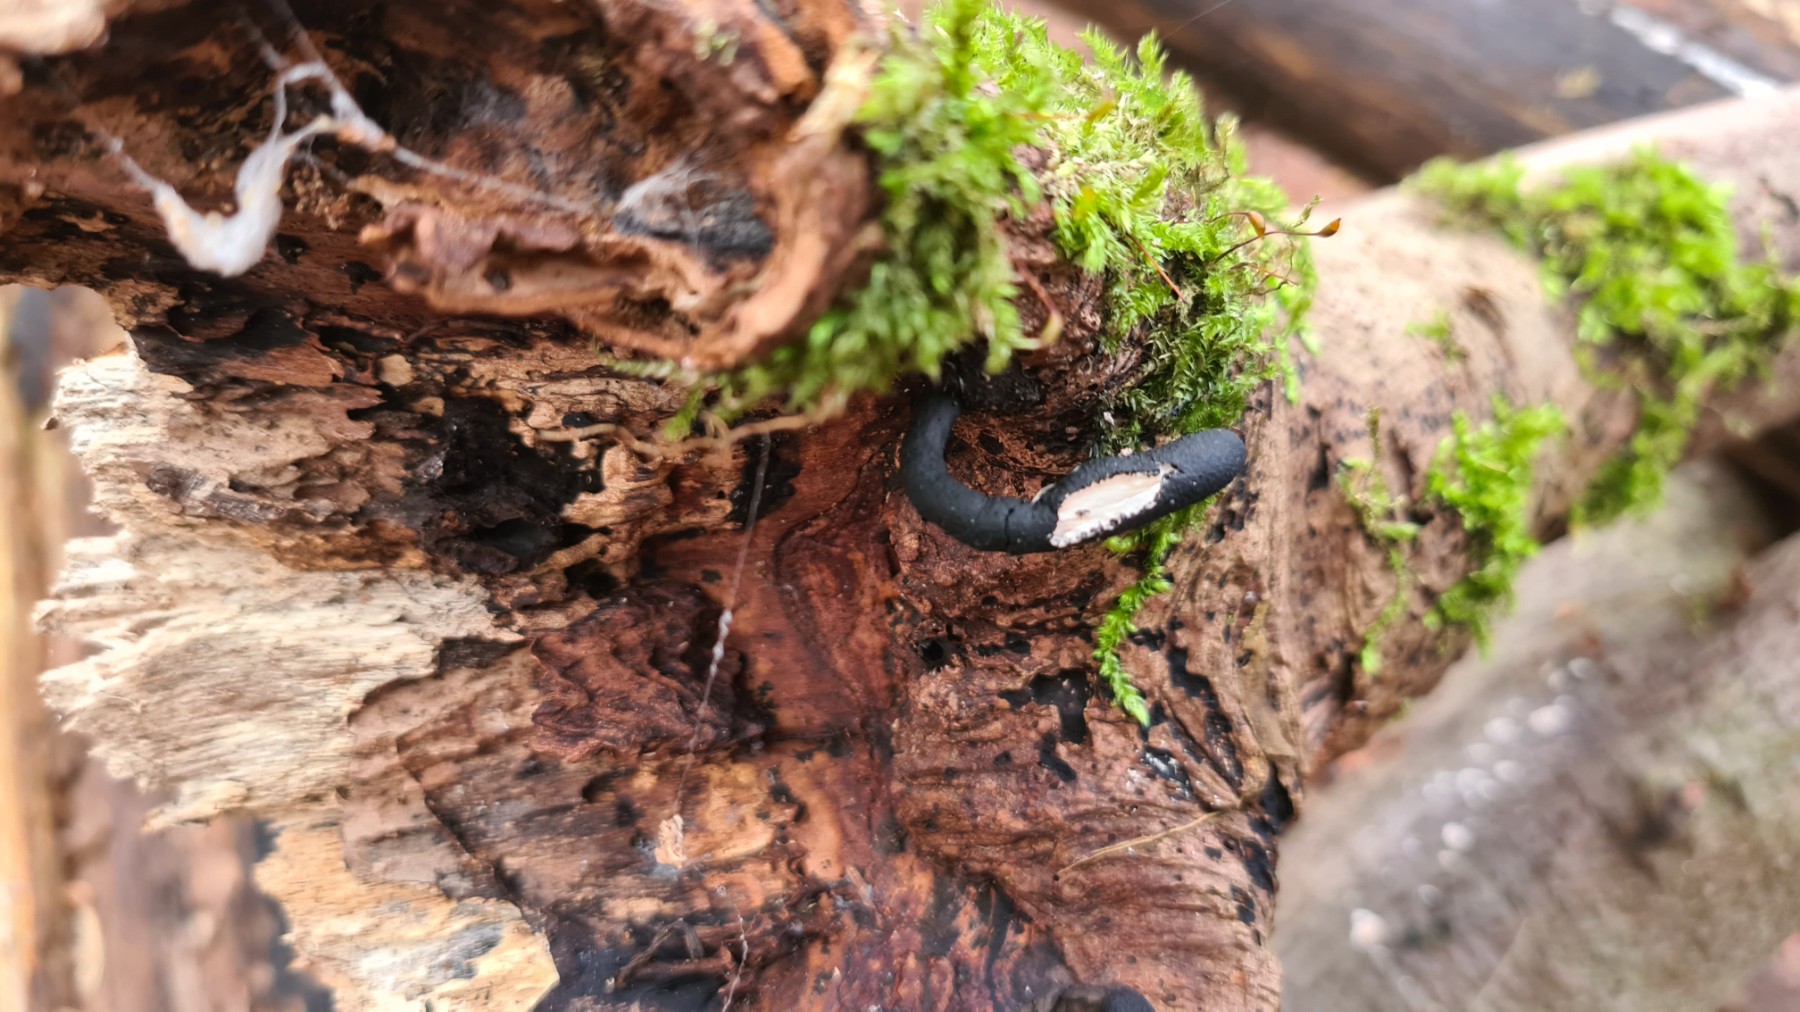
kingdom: Fungi
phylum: Ascomycota
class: Sordariomycetes
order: Xylariales
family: Xylariaceae
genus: Xylaria
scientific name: Xylaria longipes
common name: slank stødsvamp
